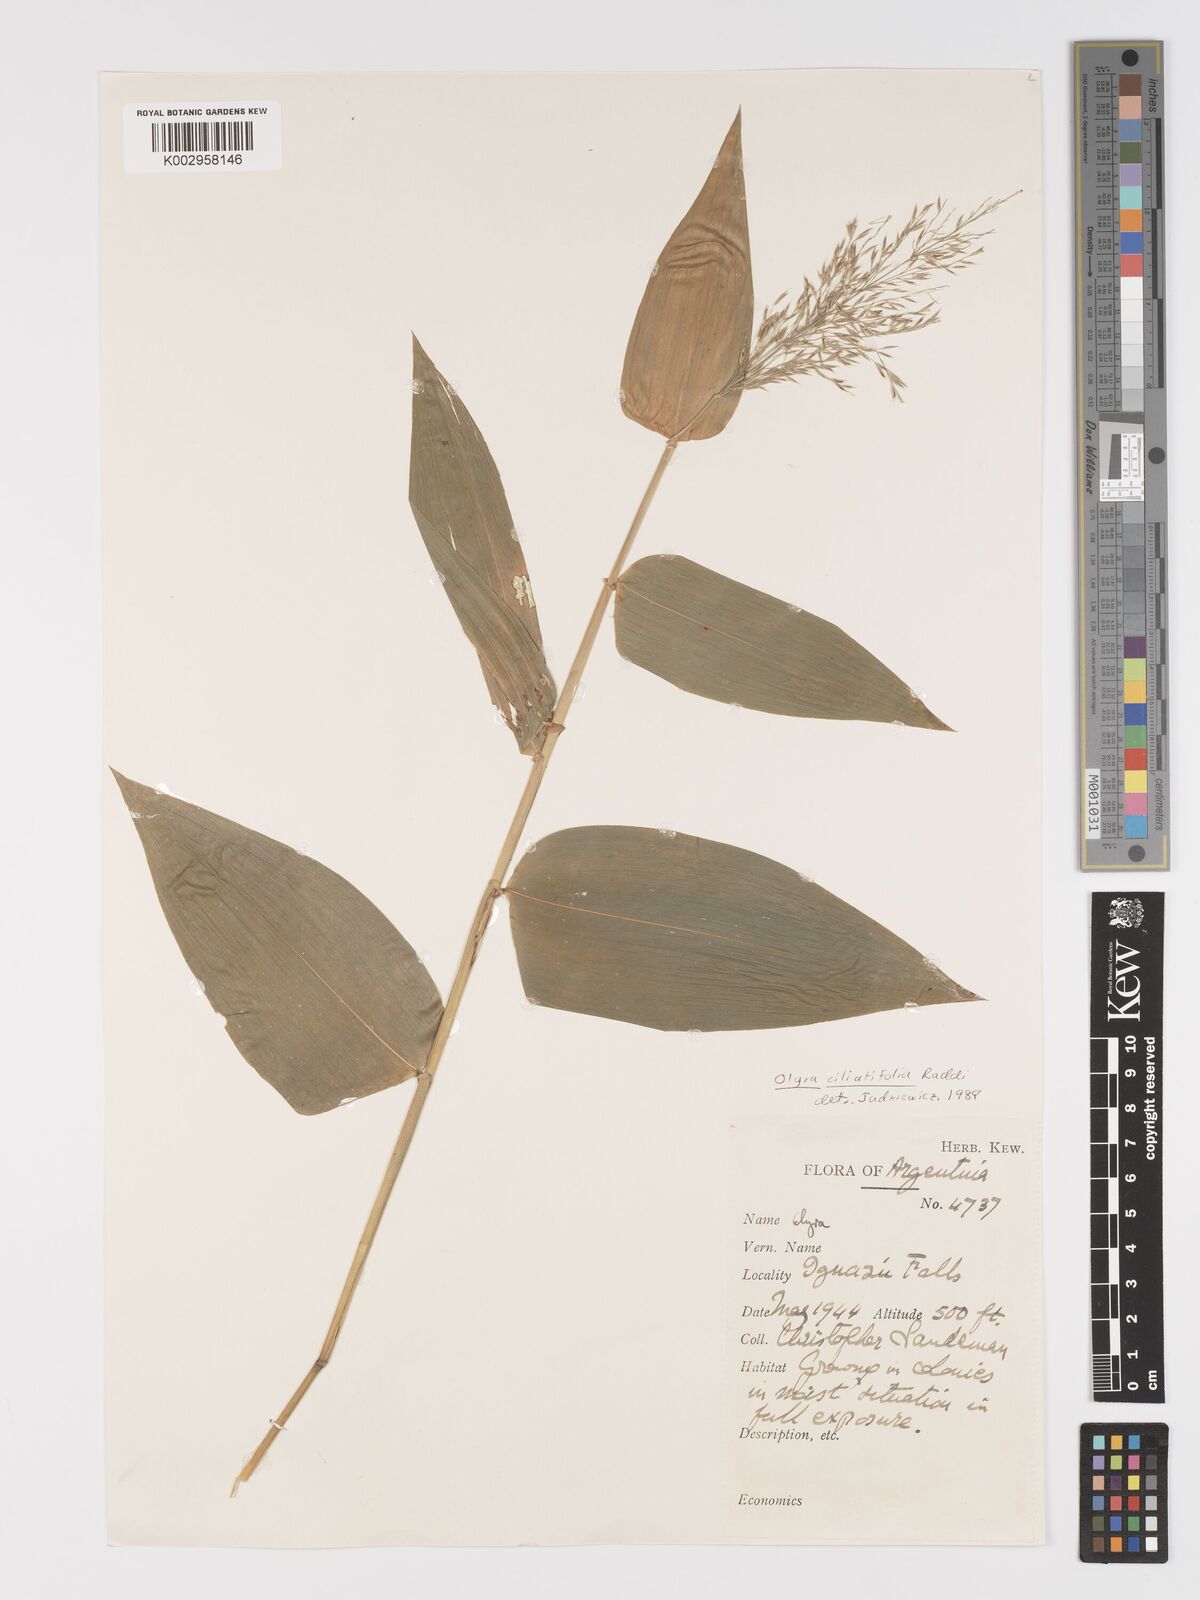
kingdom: Plantae
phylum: Tracheophyta
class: Liliopsida
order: Poales
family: Poaceae
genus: Olyra
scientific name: Olyra ciliatifolia
